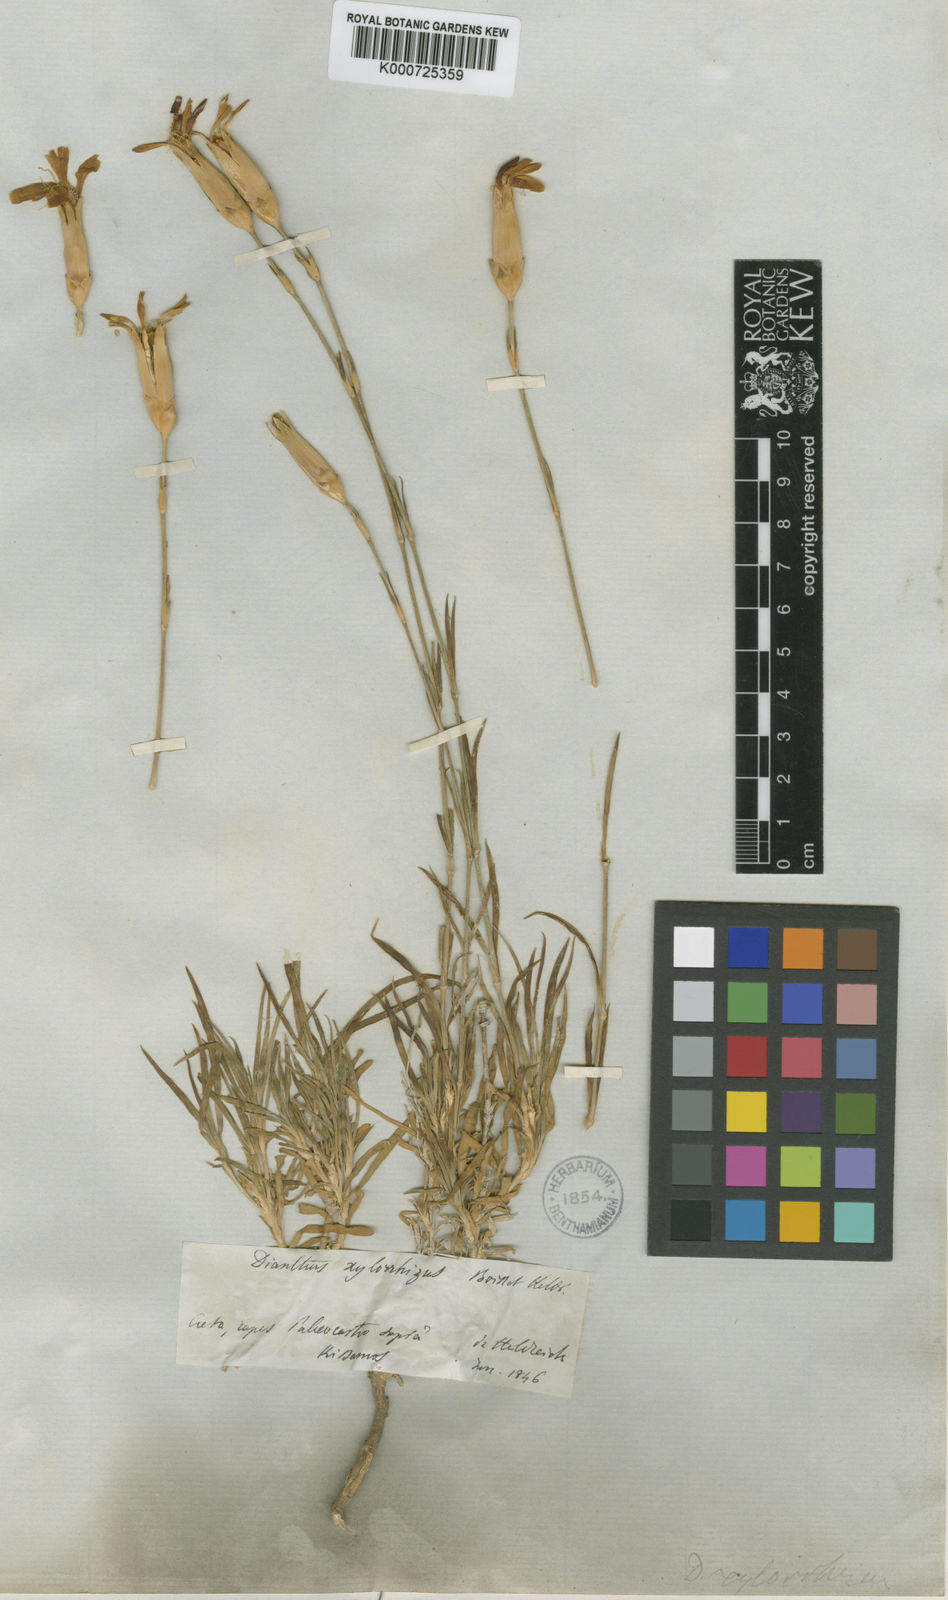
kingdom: Plantae
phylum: Tracheophyta
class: Magnoliopsida
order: Caryophyllales
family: Caryophyllaceae
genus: Dianthus
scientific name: Dianthus xylorrhizus
